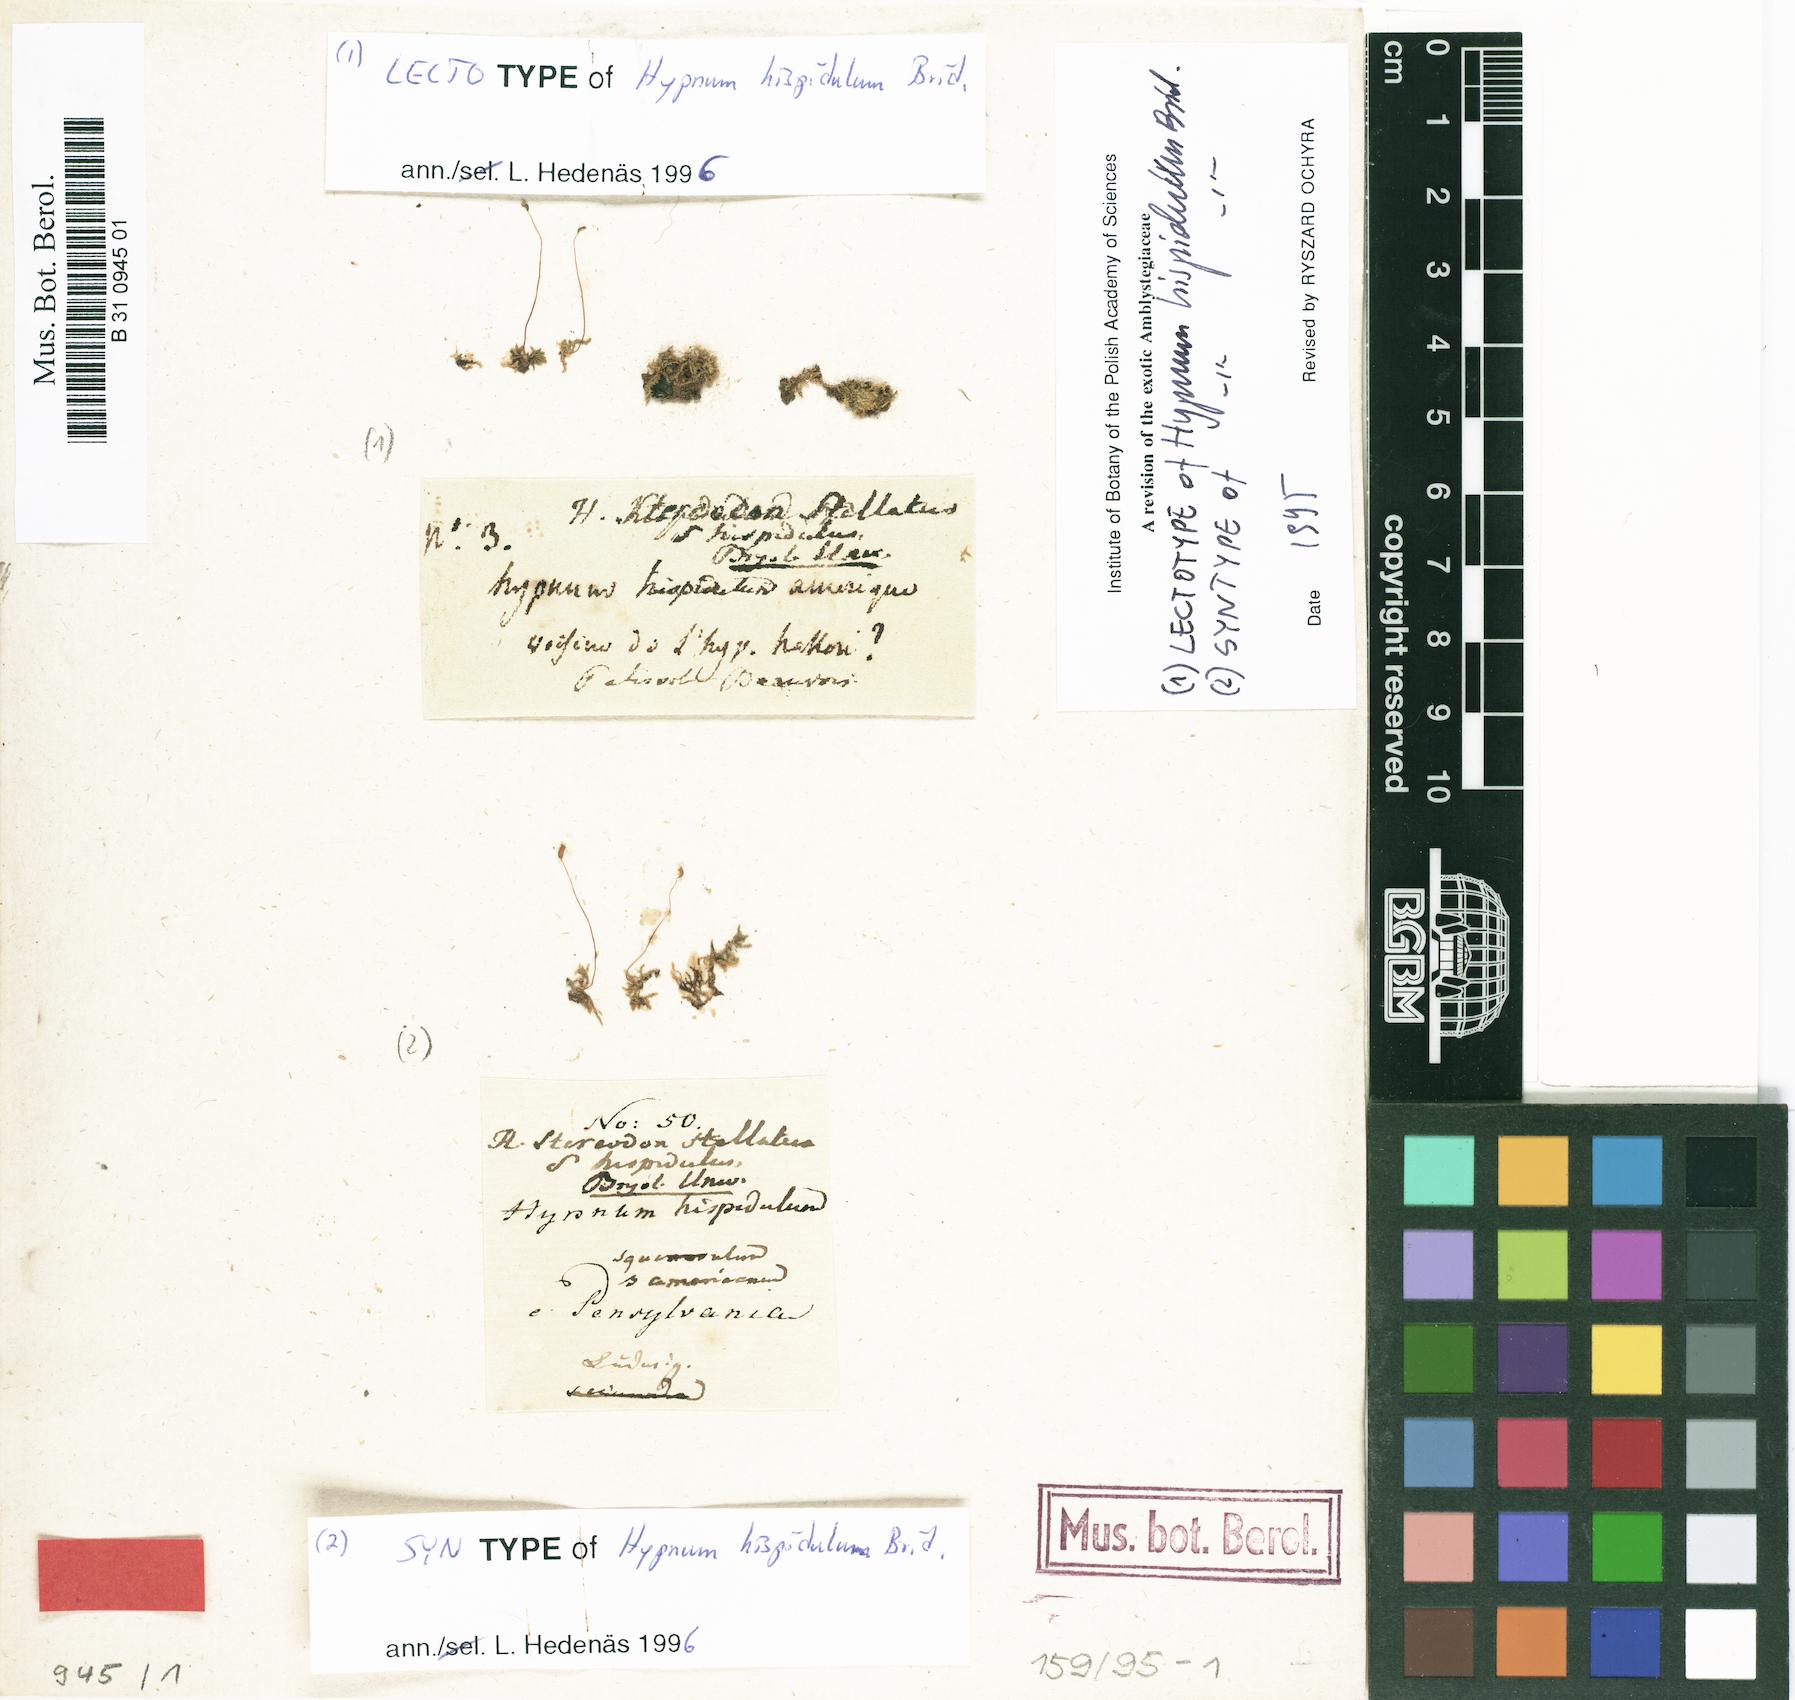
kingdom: Plantae
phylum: Bryophyta
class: Bryopsida
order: Hypnales
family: Amblystegiaceae
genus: Campylium
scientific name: Campylium stellatum
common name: Yellow starry fen moss
